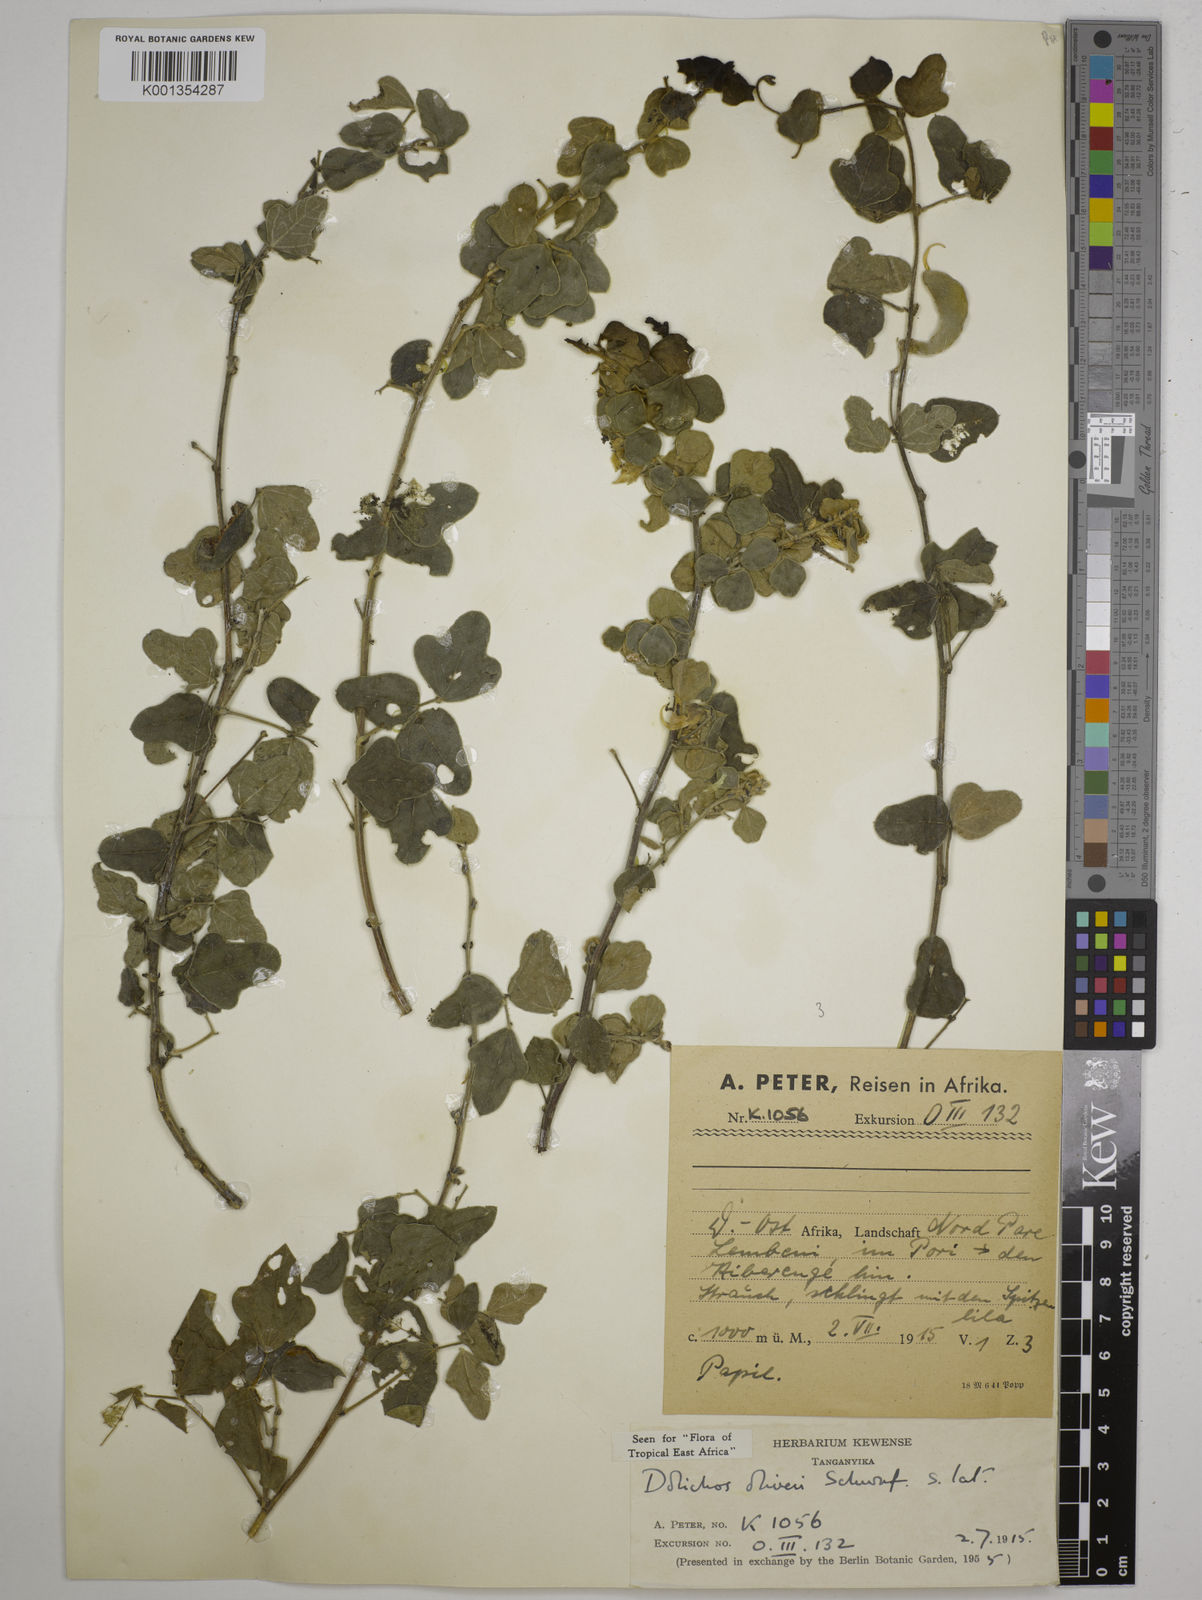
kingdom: Plantae
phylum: Tracheophyta
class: Magnoliopsida
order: Fabales
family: Fabaceae
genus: Dolichos
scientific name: Dolichos oliveri
